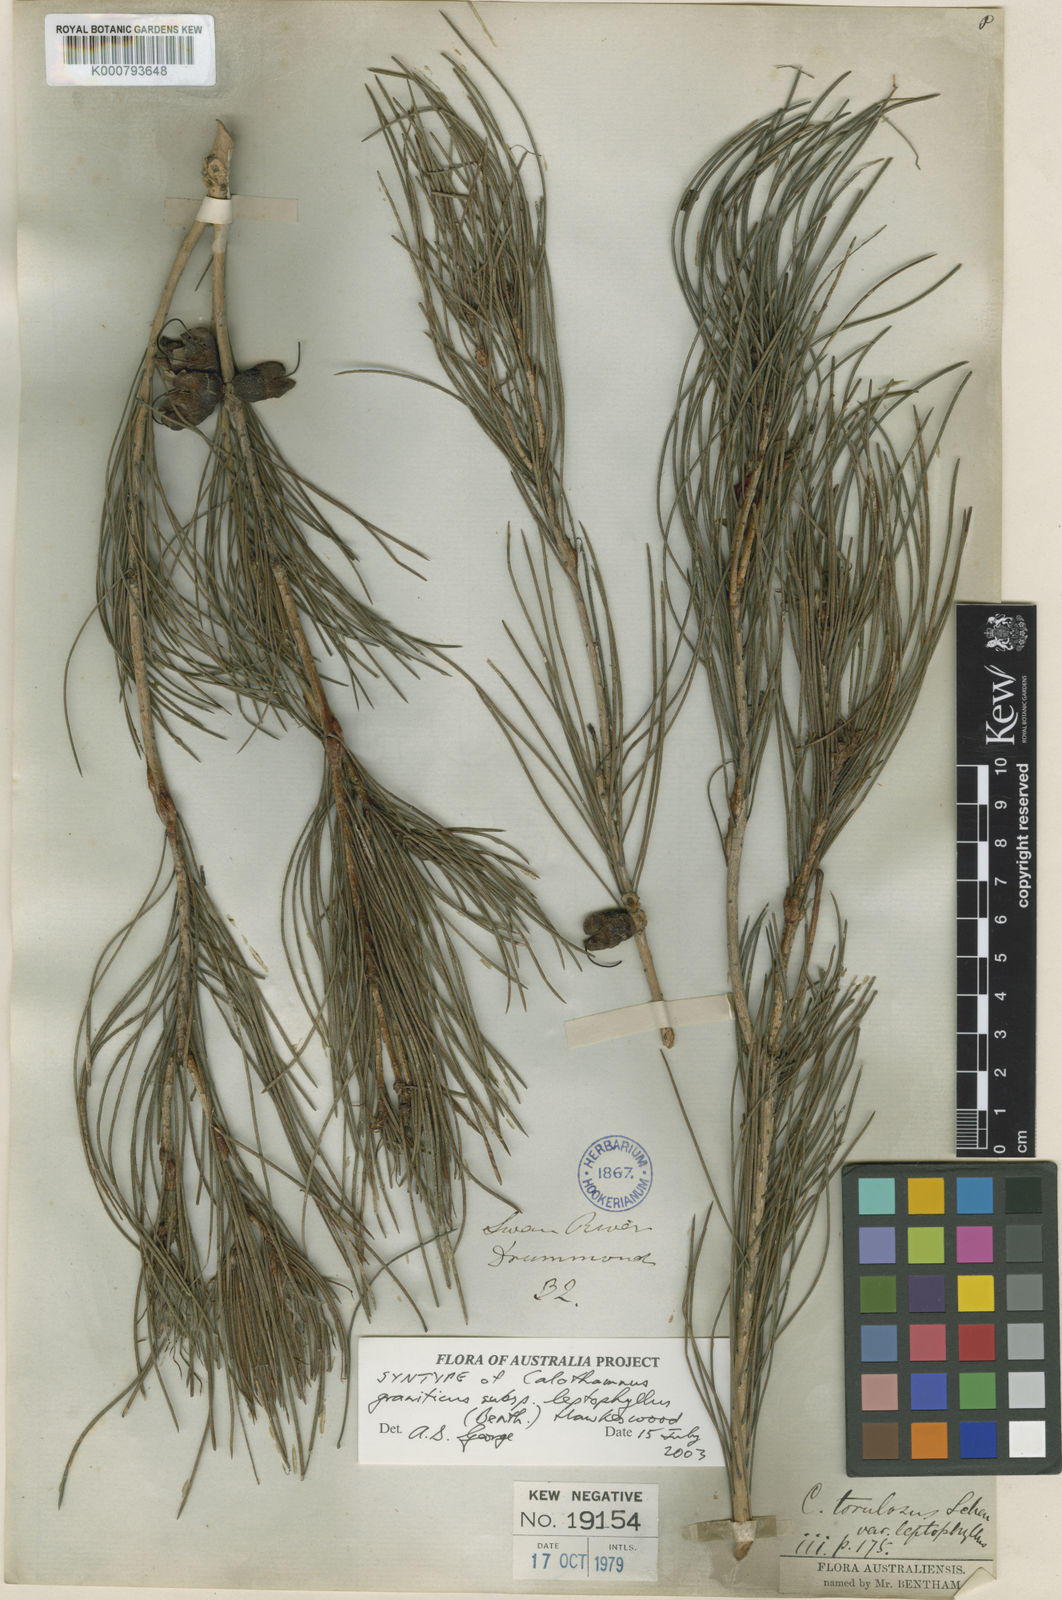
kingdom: Plantae
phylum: Tracheophyta
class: Magnoliopsida
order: Myrtales
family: Myrtaceae
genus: Melaleuca
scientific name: Melaleuca granitica
